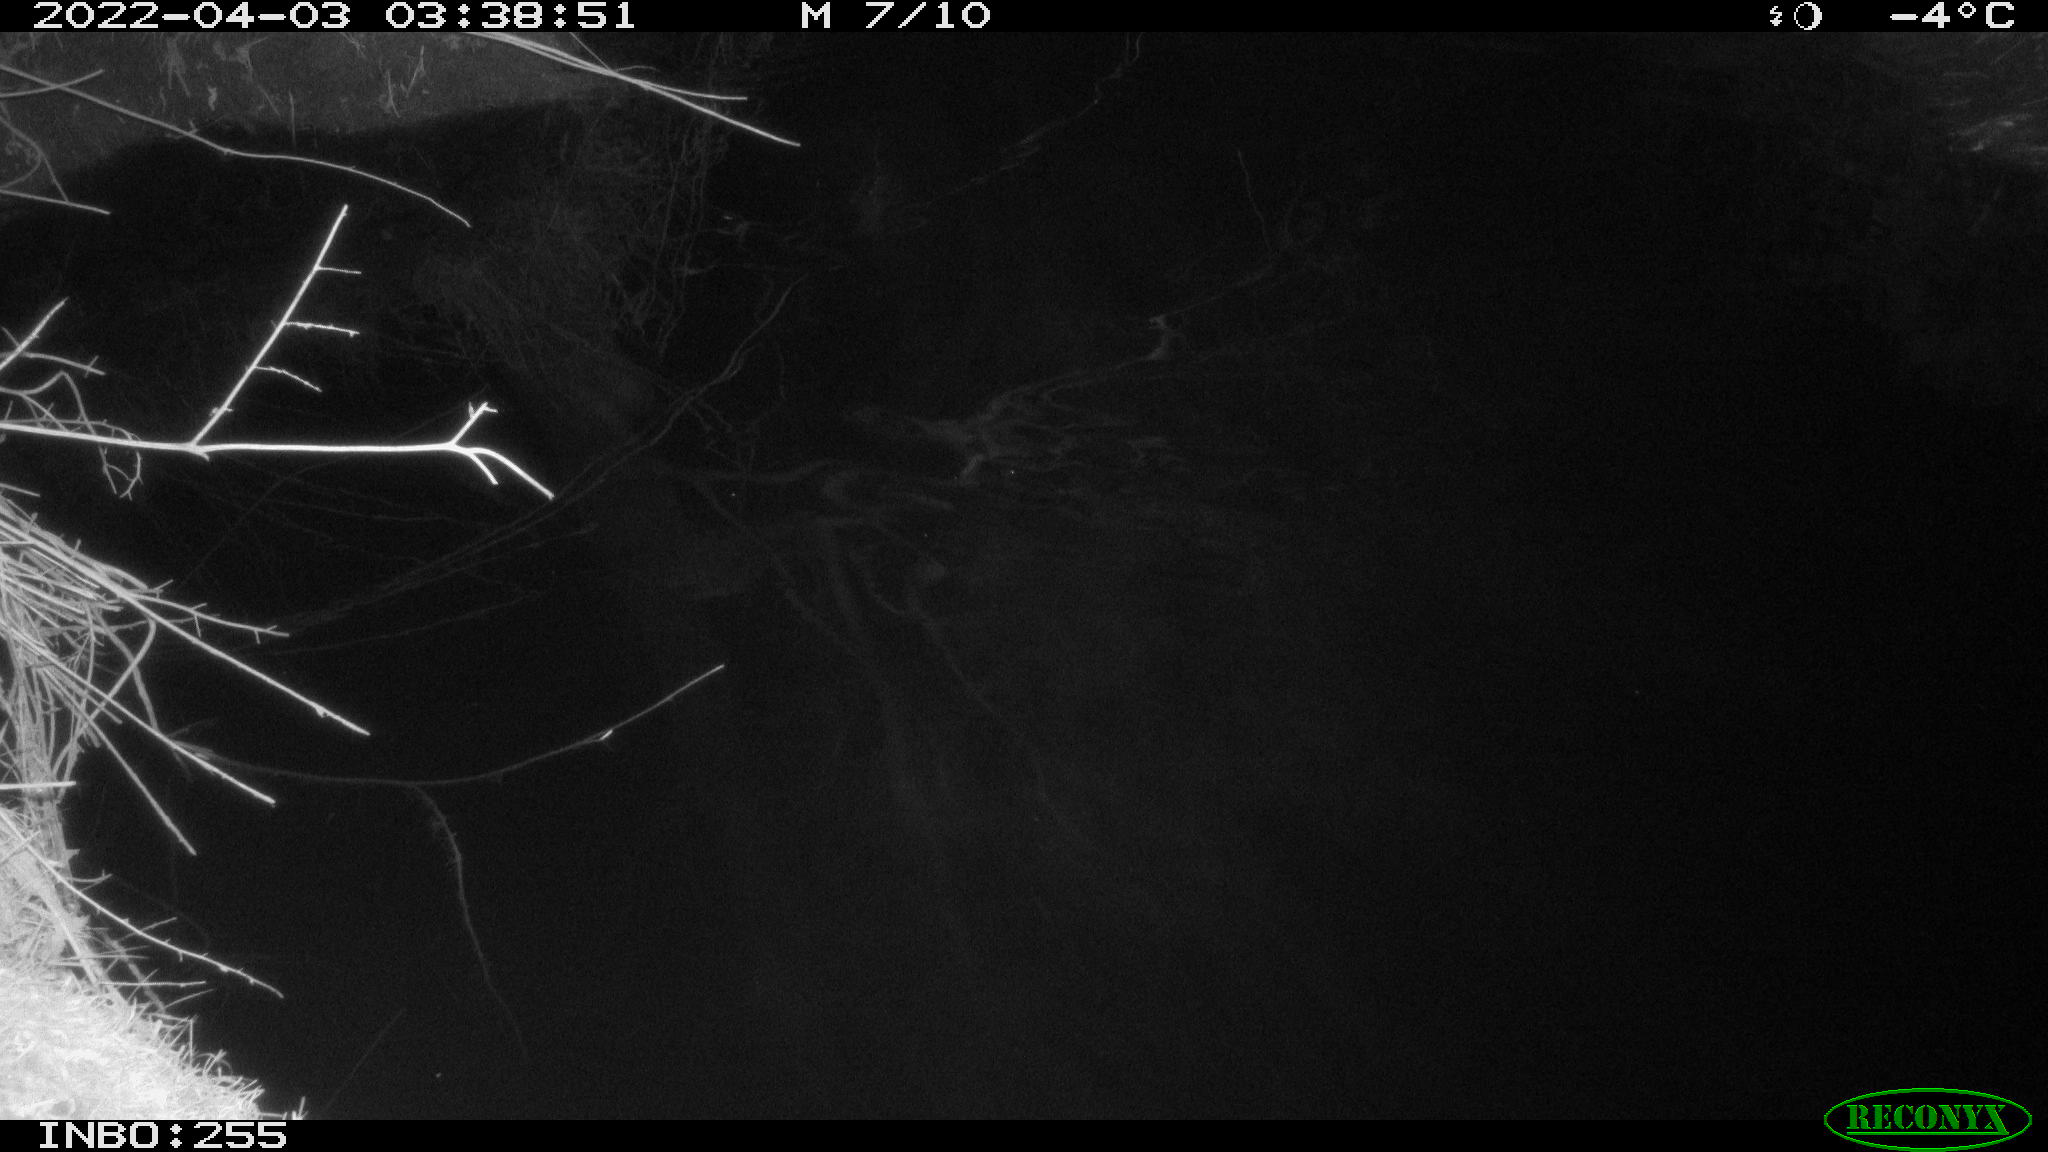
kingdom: Animalia
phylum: Chordata
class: Aves
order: Anseriformes
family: Anatidae
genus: Anas
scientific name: Anas platyrhynchos
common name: Mallard
